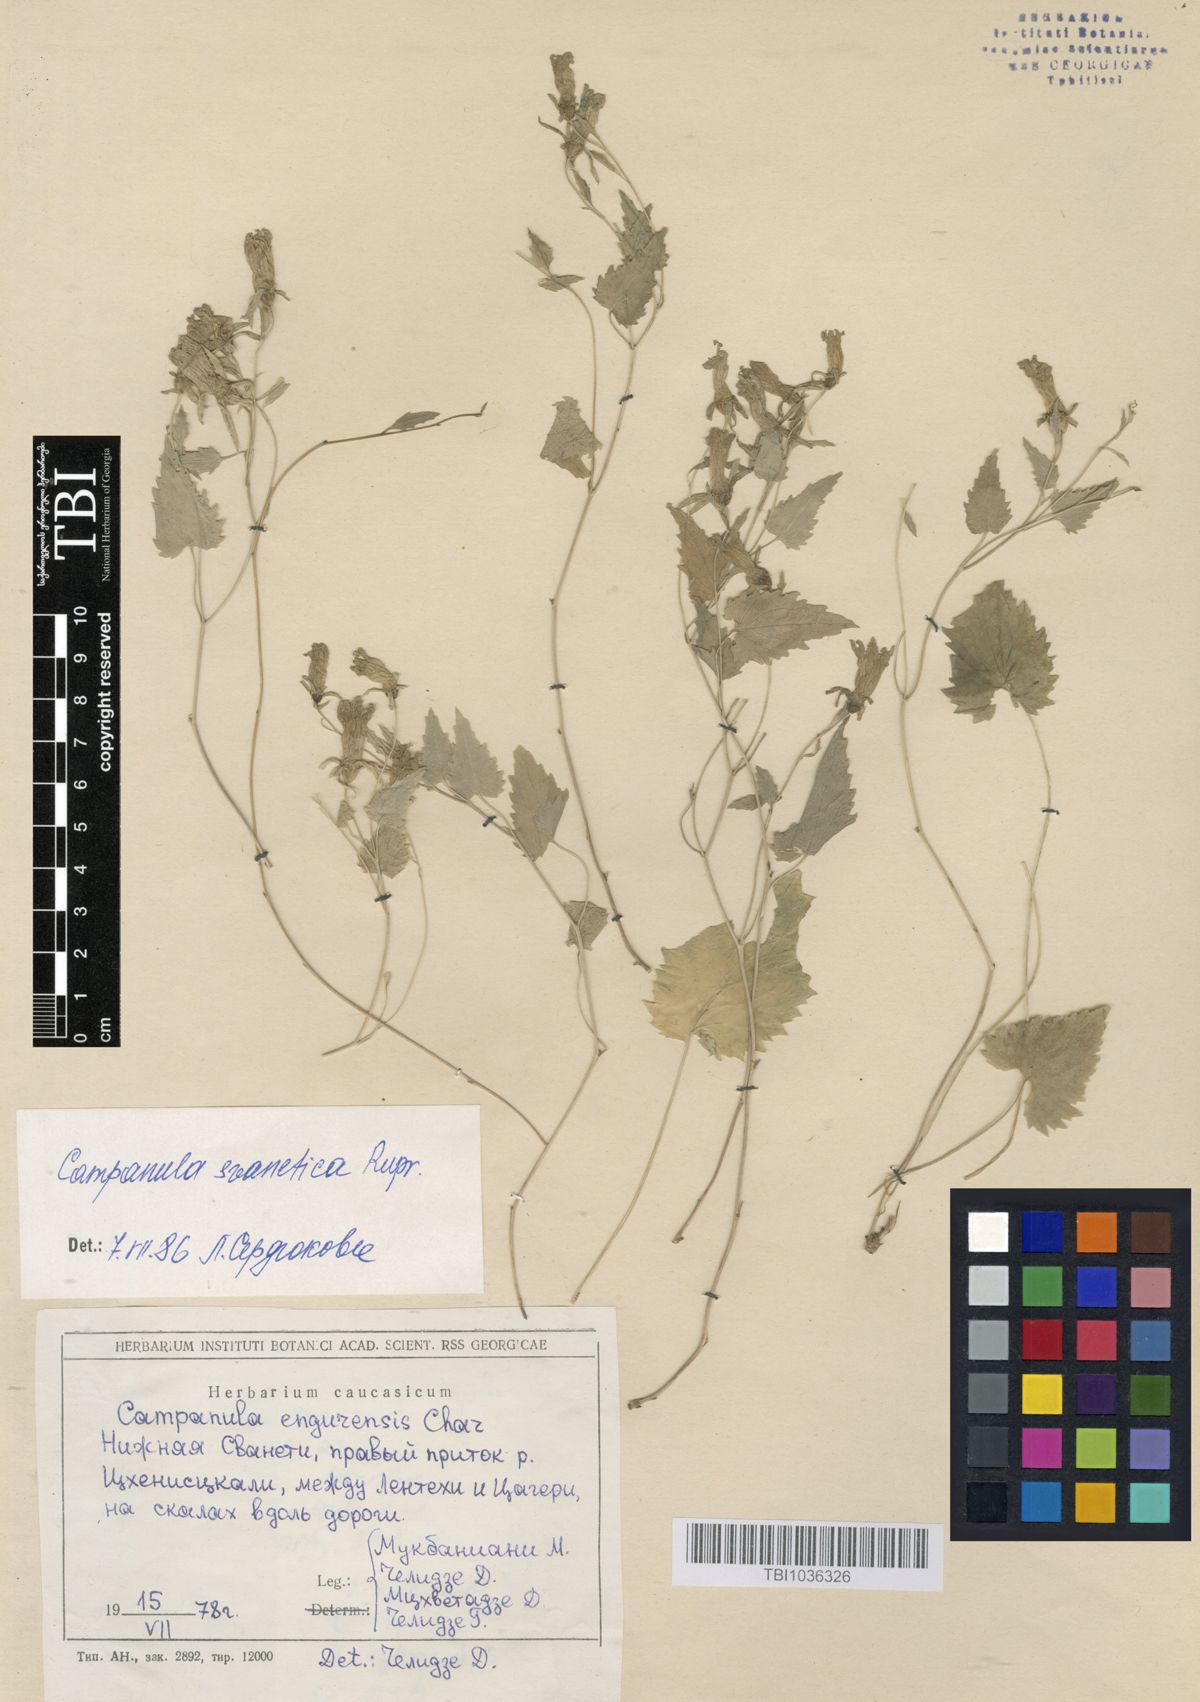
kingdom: Plantae
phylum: Tracheophyta
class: Magnoliopsida
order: Asterales
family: Campanulaceae
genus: Campanula
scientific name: Campanula suanetica
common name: Svanetian bellflower
